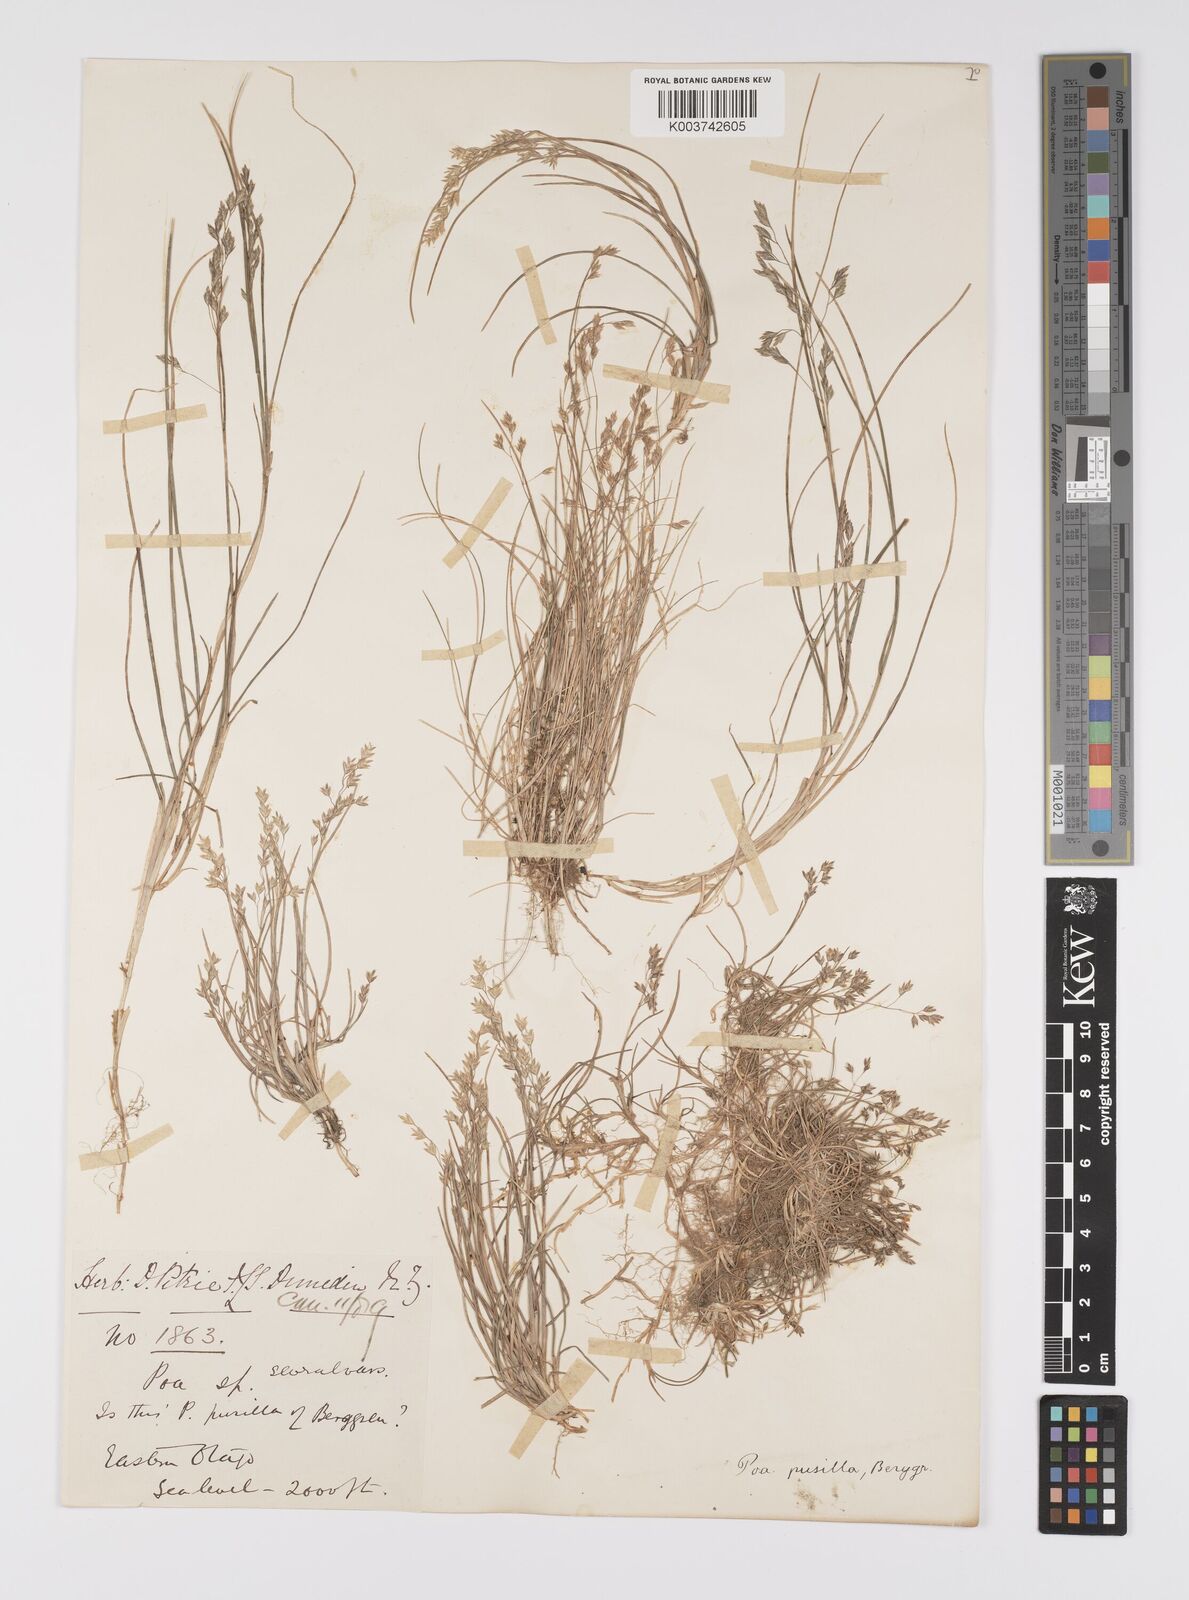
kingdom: Plantae
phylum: Tracheophyta
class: Liliopsida
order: Poales
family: Poaceae
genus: Poa
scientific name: Poa anceps
